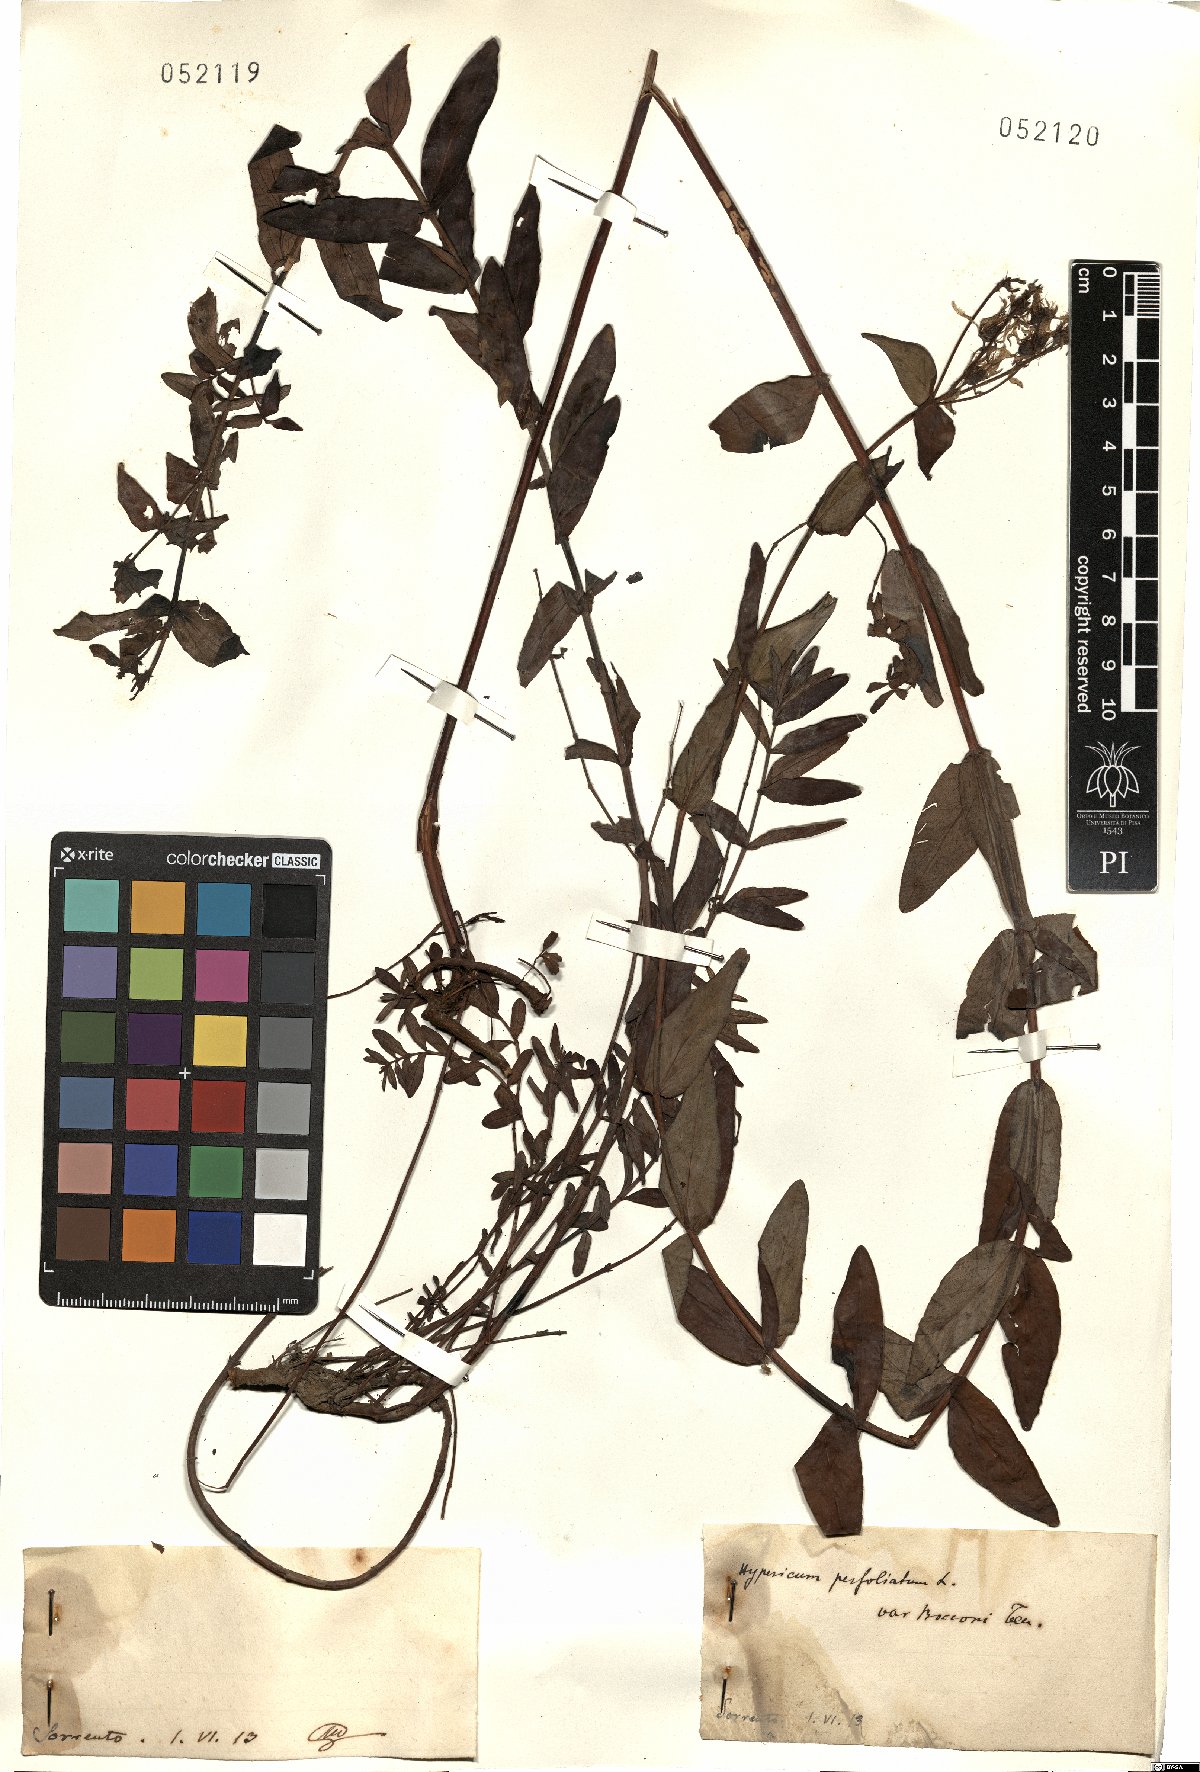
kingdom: Plantae
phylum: Tracheophyta
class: Magnoliopsida
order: Malpighiales
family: Hypericaceae
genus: Hypericum
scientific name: Hypericum perfoliatum
